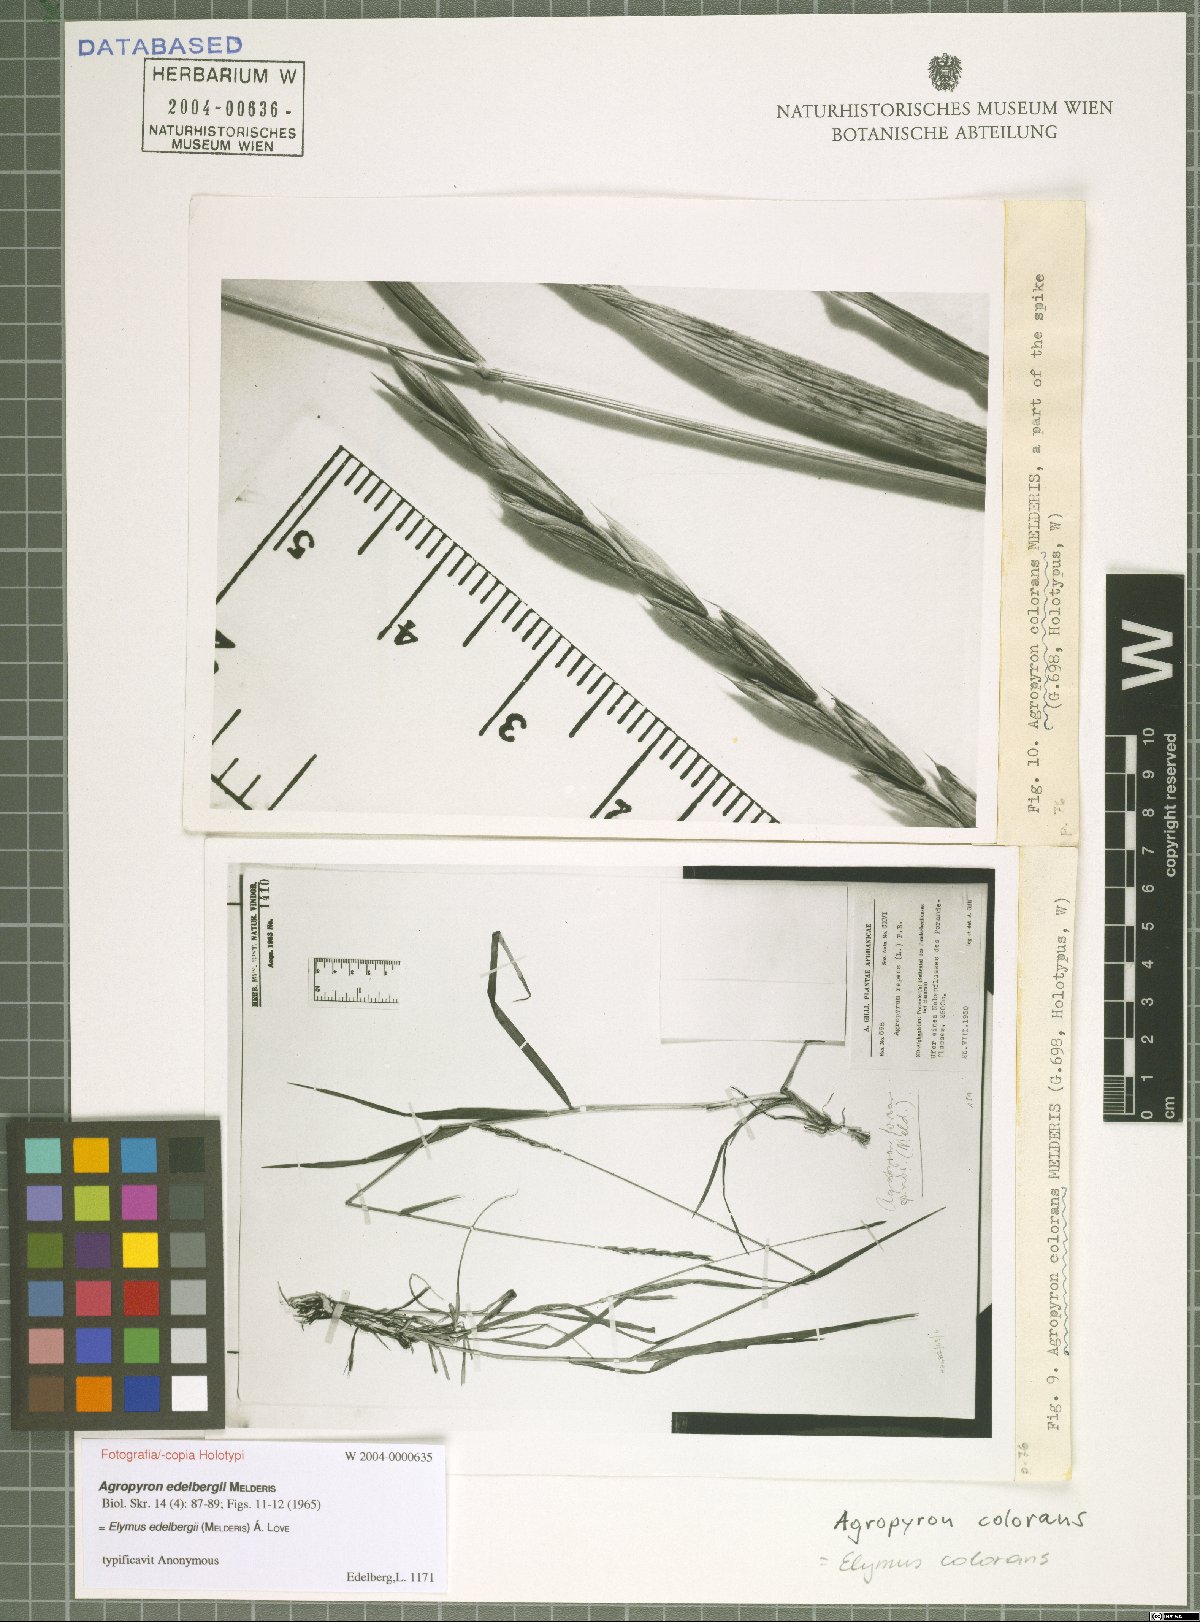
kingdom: Plantae
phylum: Tracheophyta
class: Liliopsida
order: Poales
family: Poaceae
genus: Elymus
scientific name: Elymus colorans
